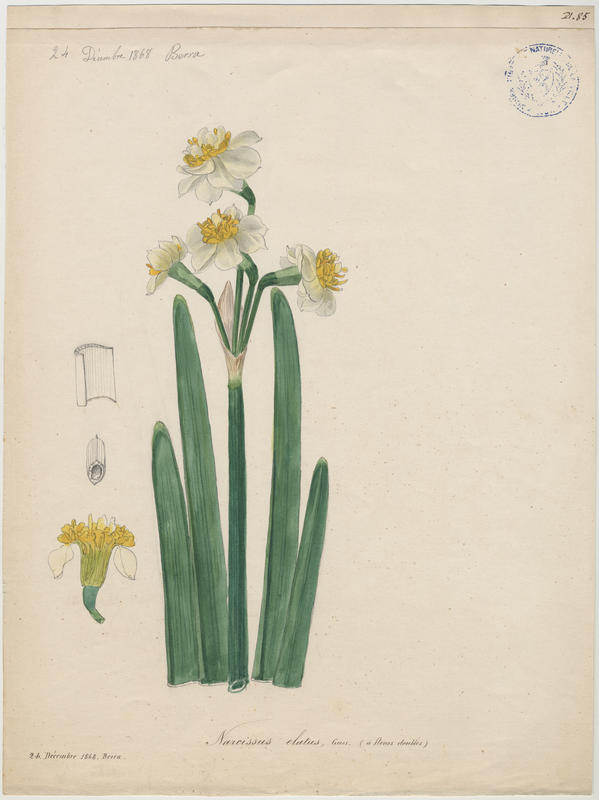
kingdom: Plantae
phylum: Tracheophyta
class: Liliopsida
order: Asparagales
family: Amaryllidaceae
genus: Narcissus
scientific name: Narcissus tazetta
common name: Bunch-flowered daffodil
